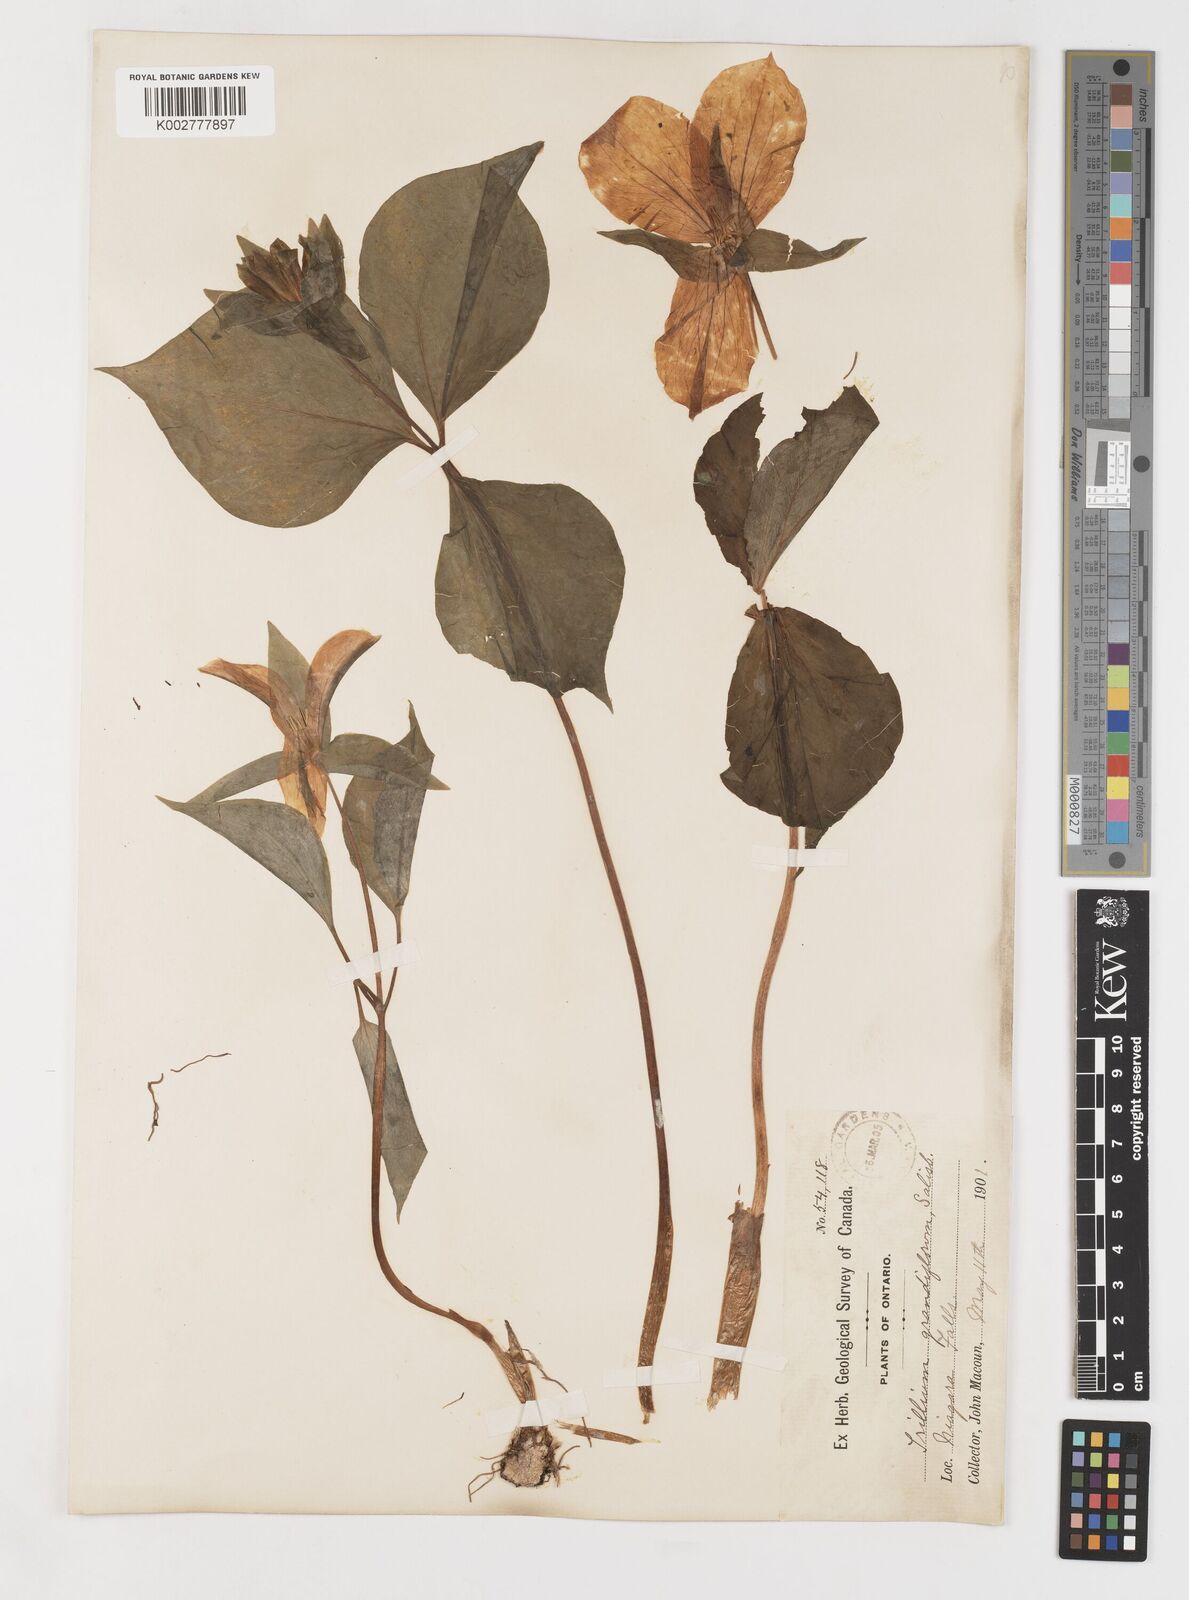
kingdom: Plantae
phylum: Tracheophyta
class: Liliopsida
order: Liliales
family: Melanthiaceae
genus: Trillium
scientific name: Trillium grandiflorum
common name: Great white trillium
